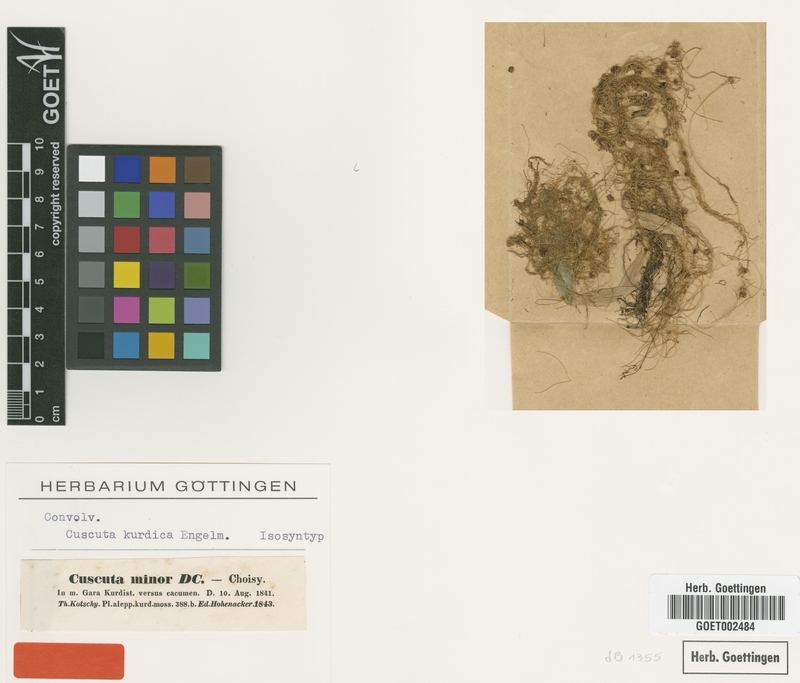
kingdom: Plantae
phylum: Tracheophyta
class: Magnoliopsida
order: Solanales
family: Convolvulaceae
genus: Cuscuta
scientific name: Cuscuta kurdica
